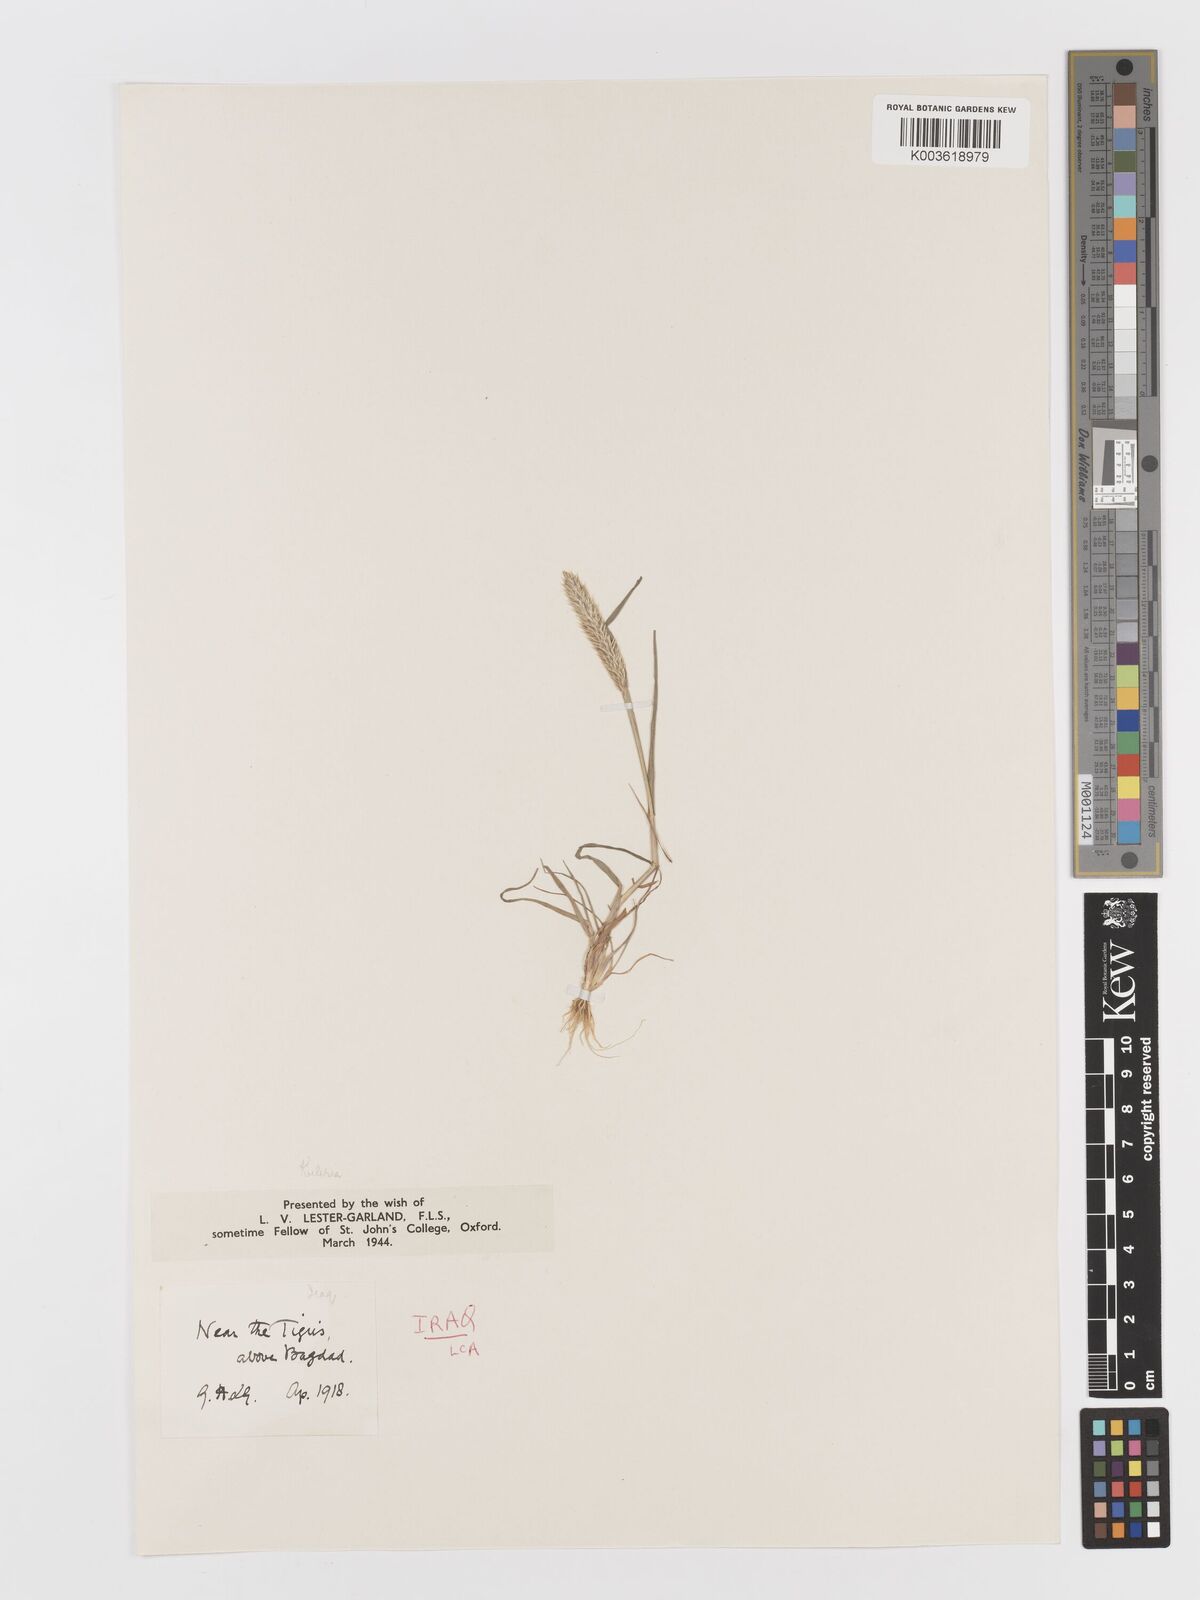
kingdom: Plantae
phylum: Tracheophyta
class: Liliopsida
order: Poales
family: Poaceae
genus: Rostraria
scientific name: Rostraria cristata
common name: Mediterranean hair-grass
